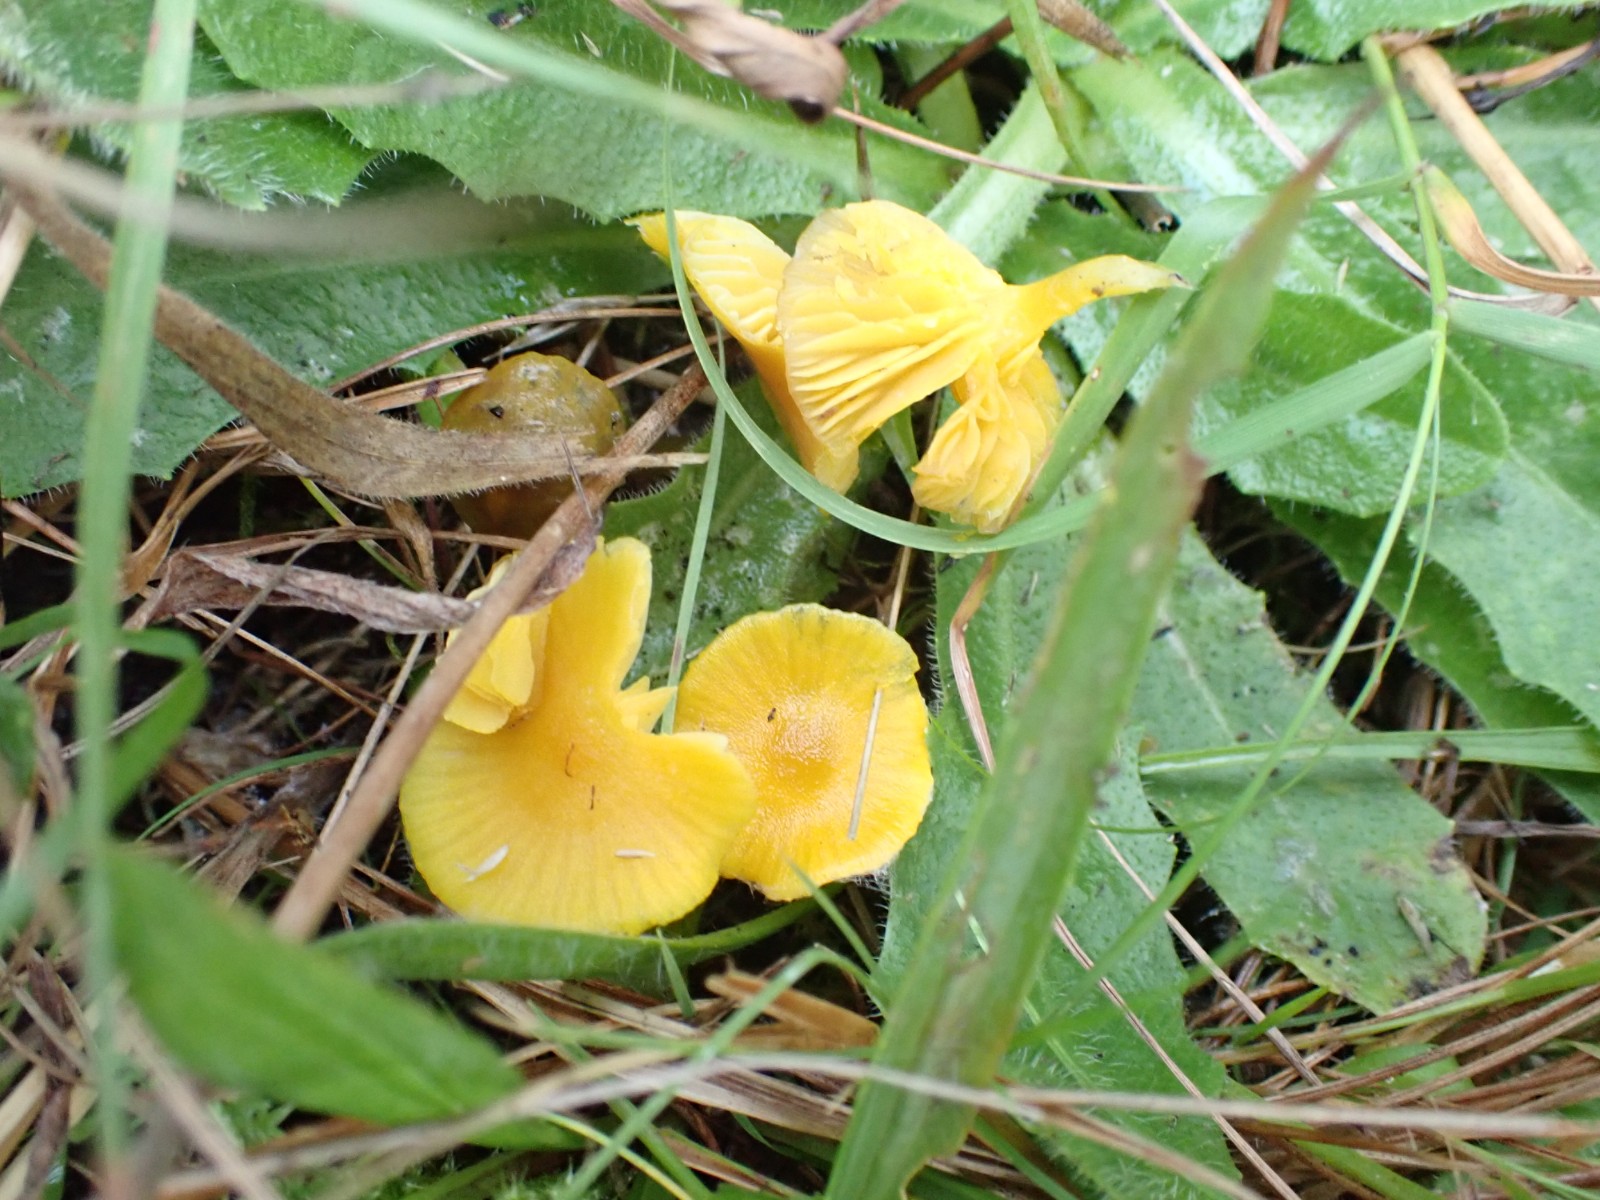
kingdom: Fungi
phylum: Basidiomycota
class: Agaricomycetes
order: Agaricales
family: Hygrophoraceae
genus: Hygrocybe
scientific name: Hygrocybe ceracea
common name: voksgul vokshat
